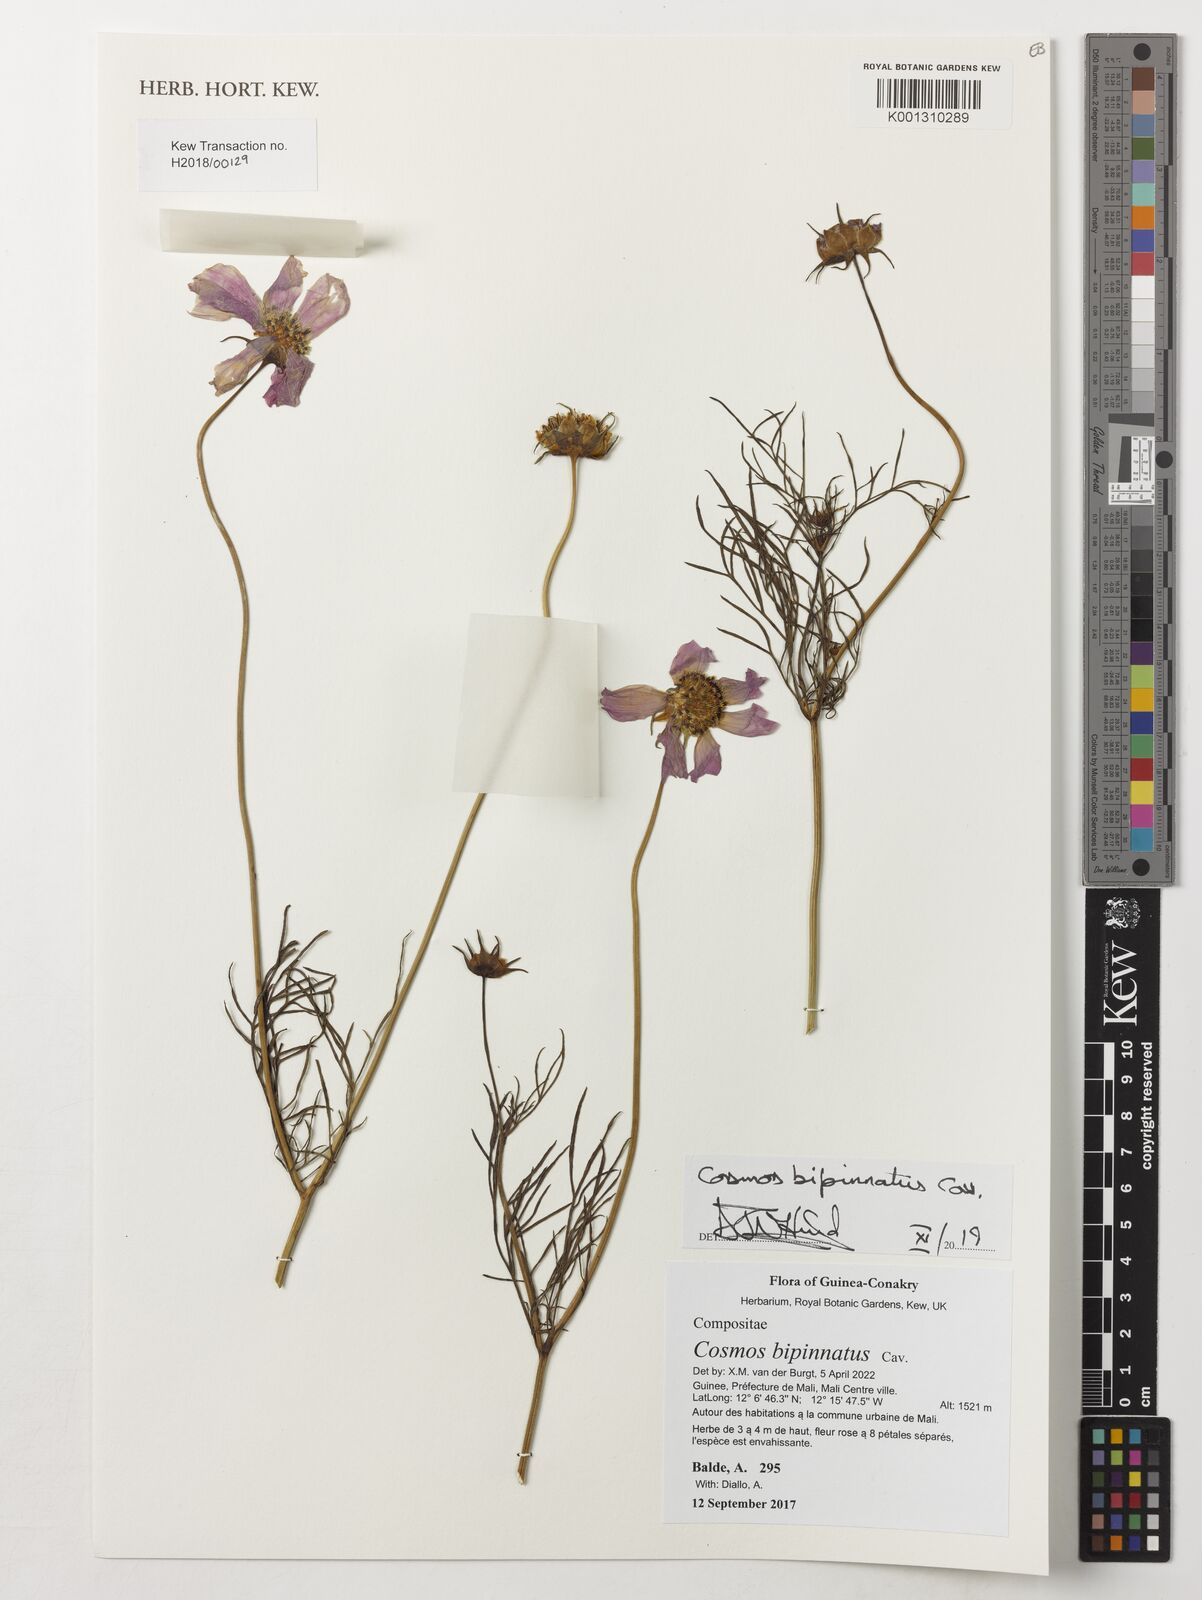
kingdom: Plantae
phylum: Tracheophyta
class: Magnoliopsida
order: Asterales
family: Asteraceae
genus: Cosmos
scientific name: Cosmos bipinnatus
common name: Garden cosmos
